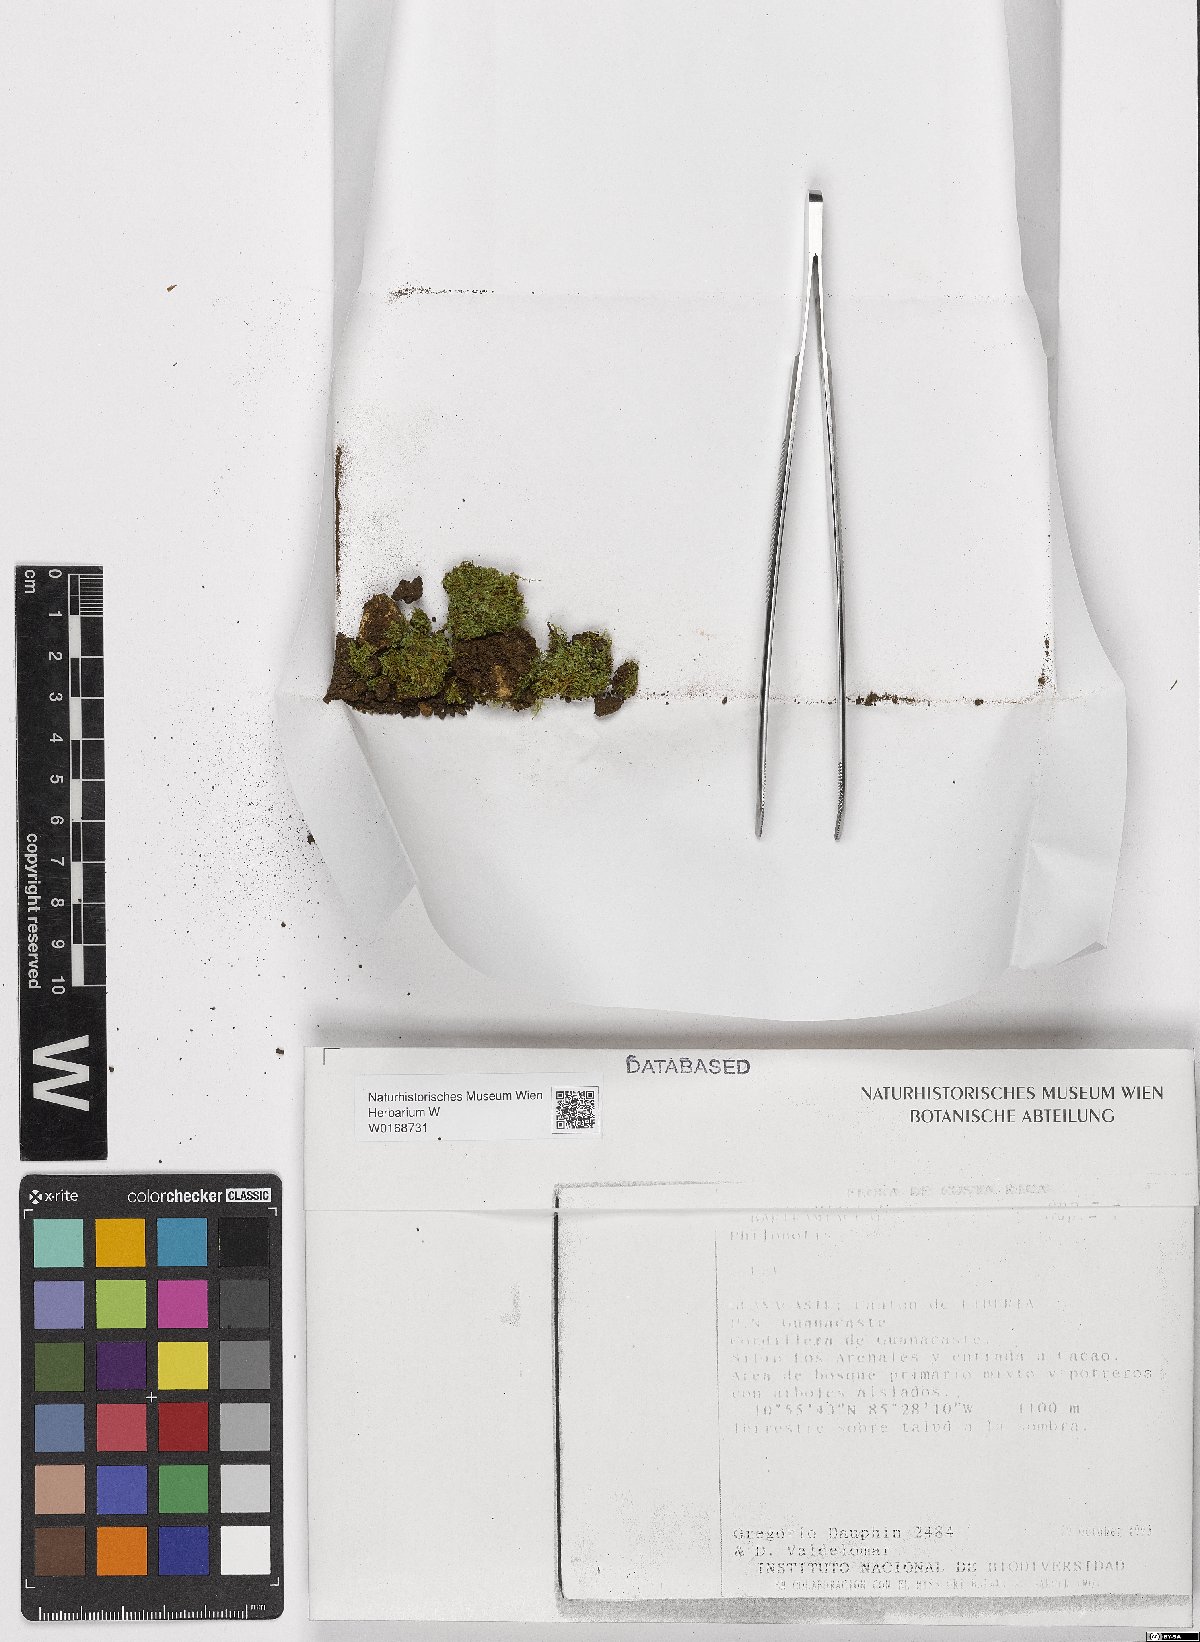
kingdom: Plantae
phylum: Bryophyta
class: Bryopsida
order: Bartramiales
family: Bartramiaceae
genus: Philonotis
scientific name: Philonotis
